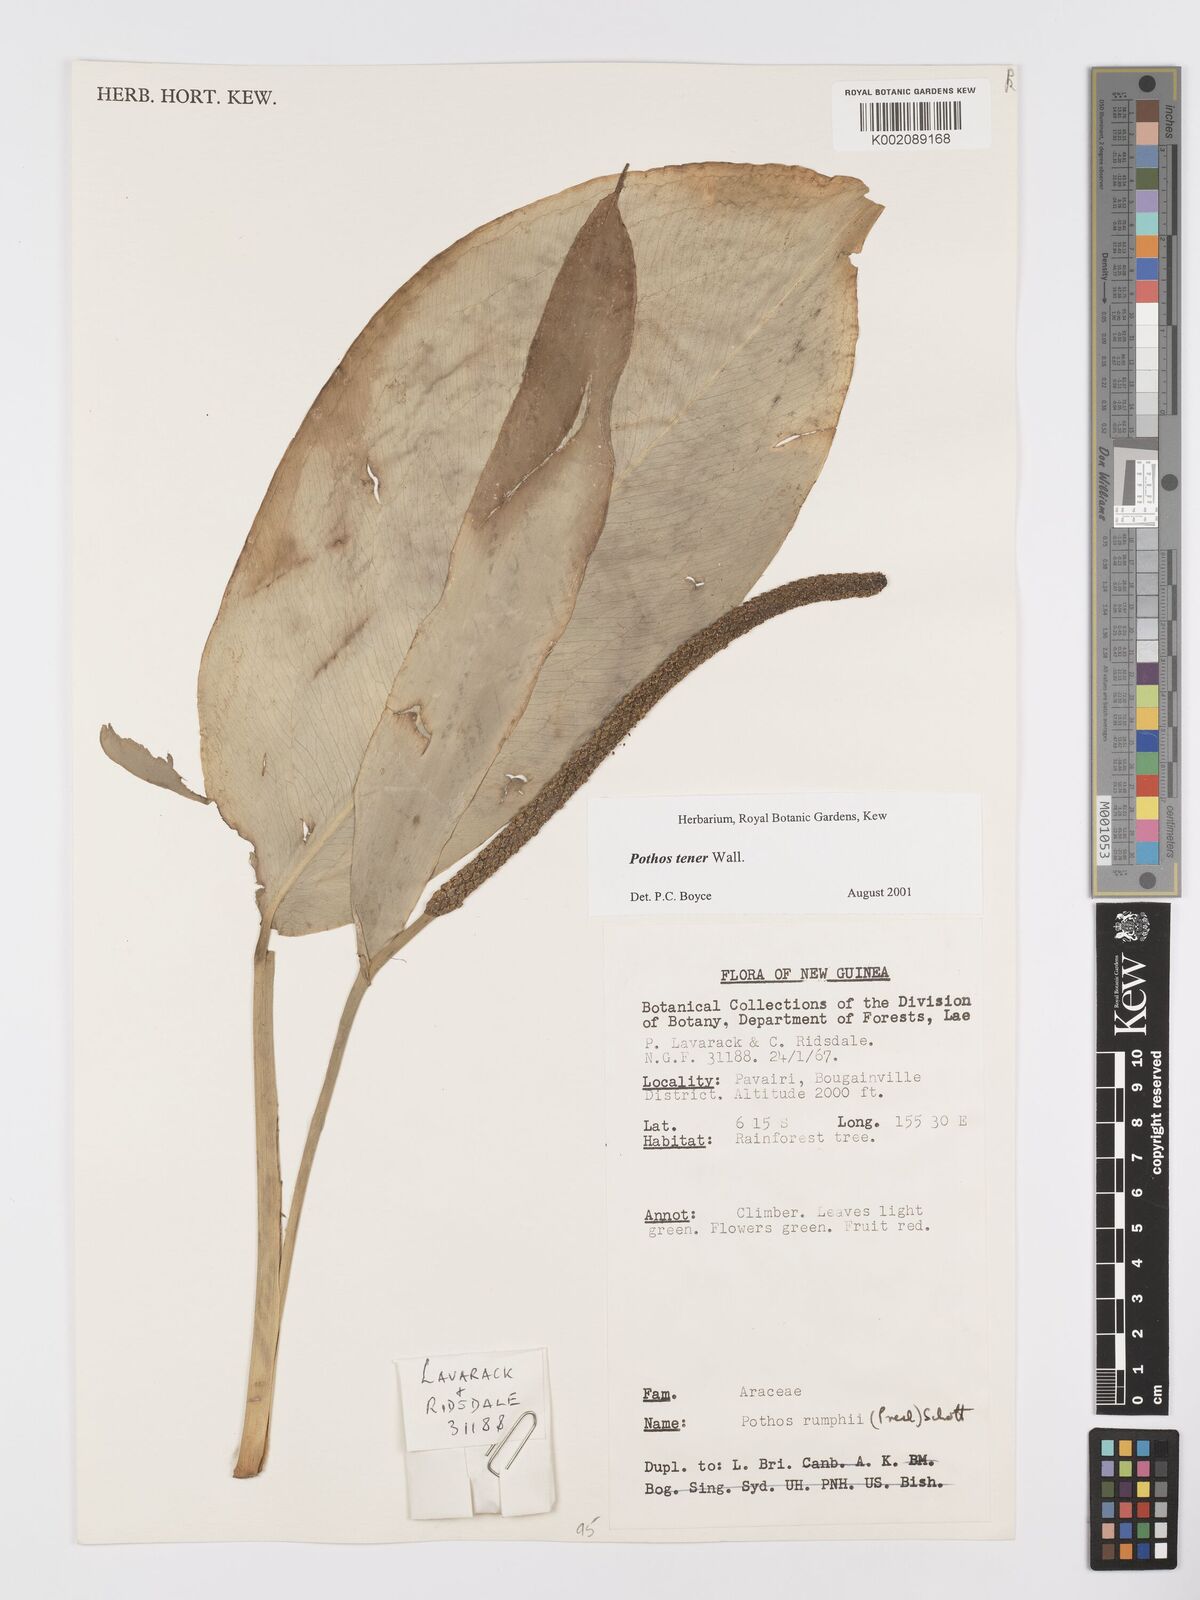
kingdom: Plantae
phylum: Tracheophyta
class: Liliopsida
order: Alismatales
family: Araceae
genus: Pothos
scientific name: Pothos tener
